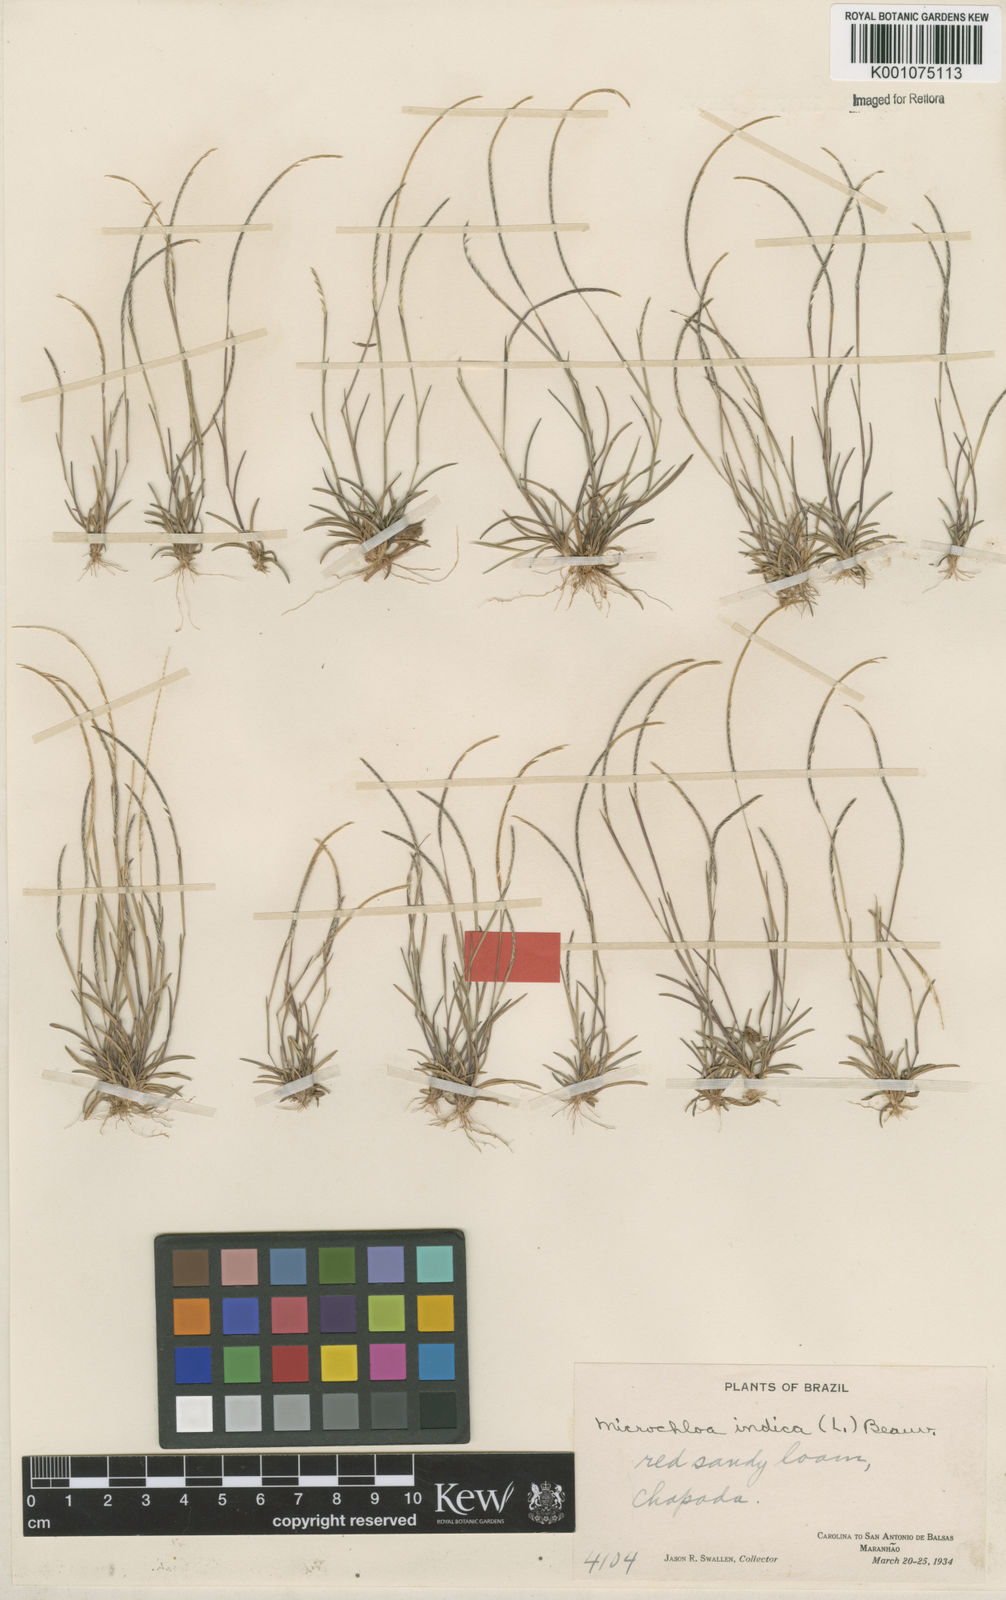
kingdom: Plantae
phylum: Tracheophyta
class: Liliopsida
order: Poales
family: Poaceae
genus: Microchloa
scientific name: Microchloa indica
